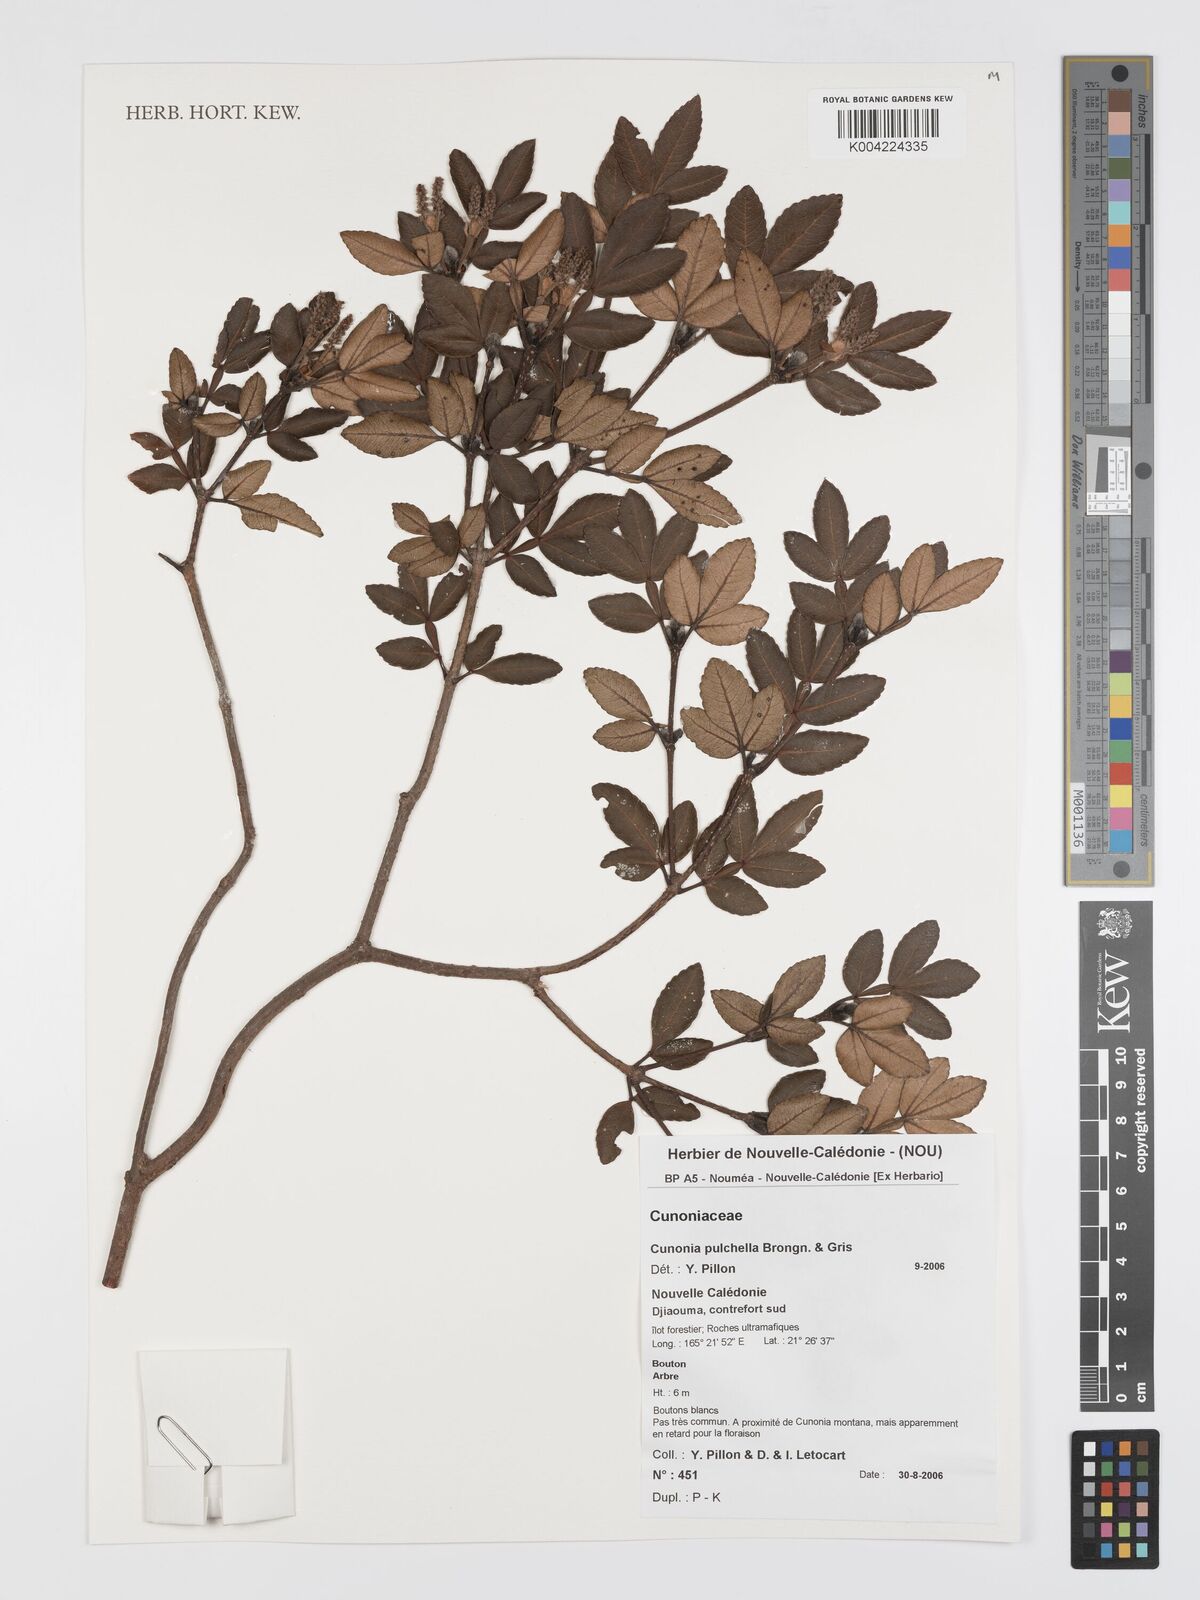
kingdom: Plantae
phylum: Tracheophyta
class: Magnoliopsida
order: Oxalidales
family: Cunoniaceae
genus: Cunonia
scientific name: Cunonia pulchella
